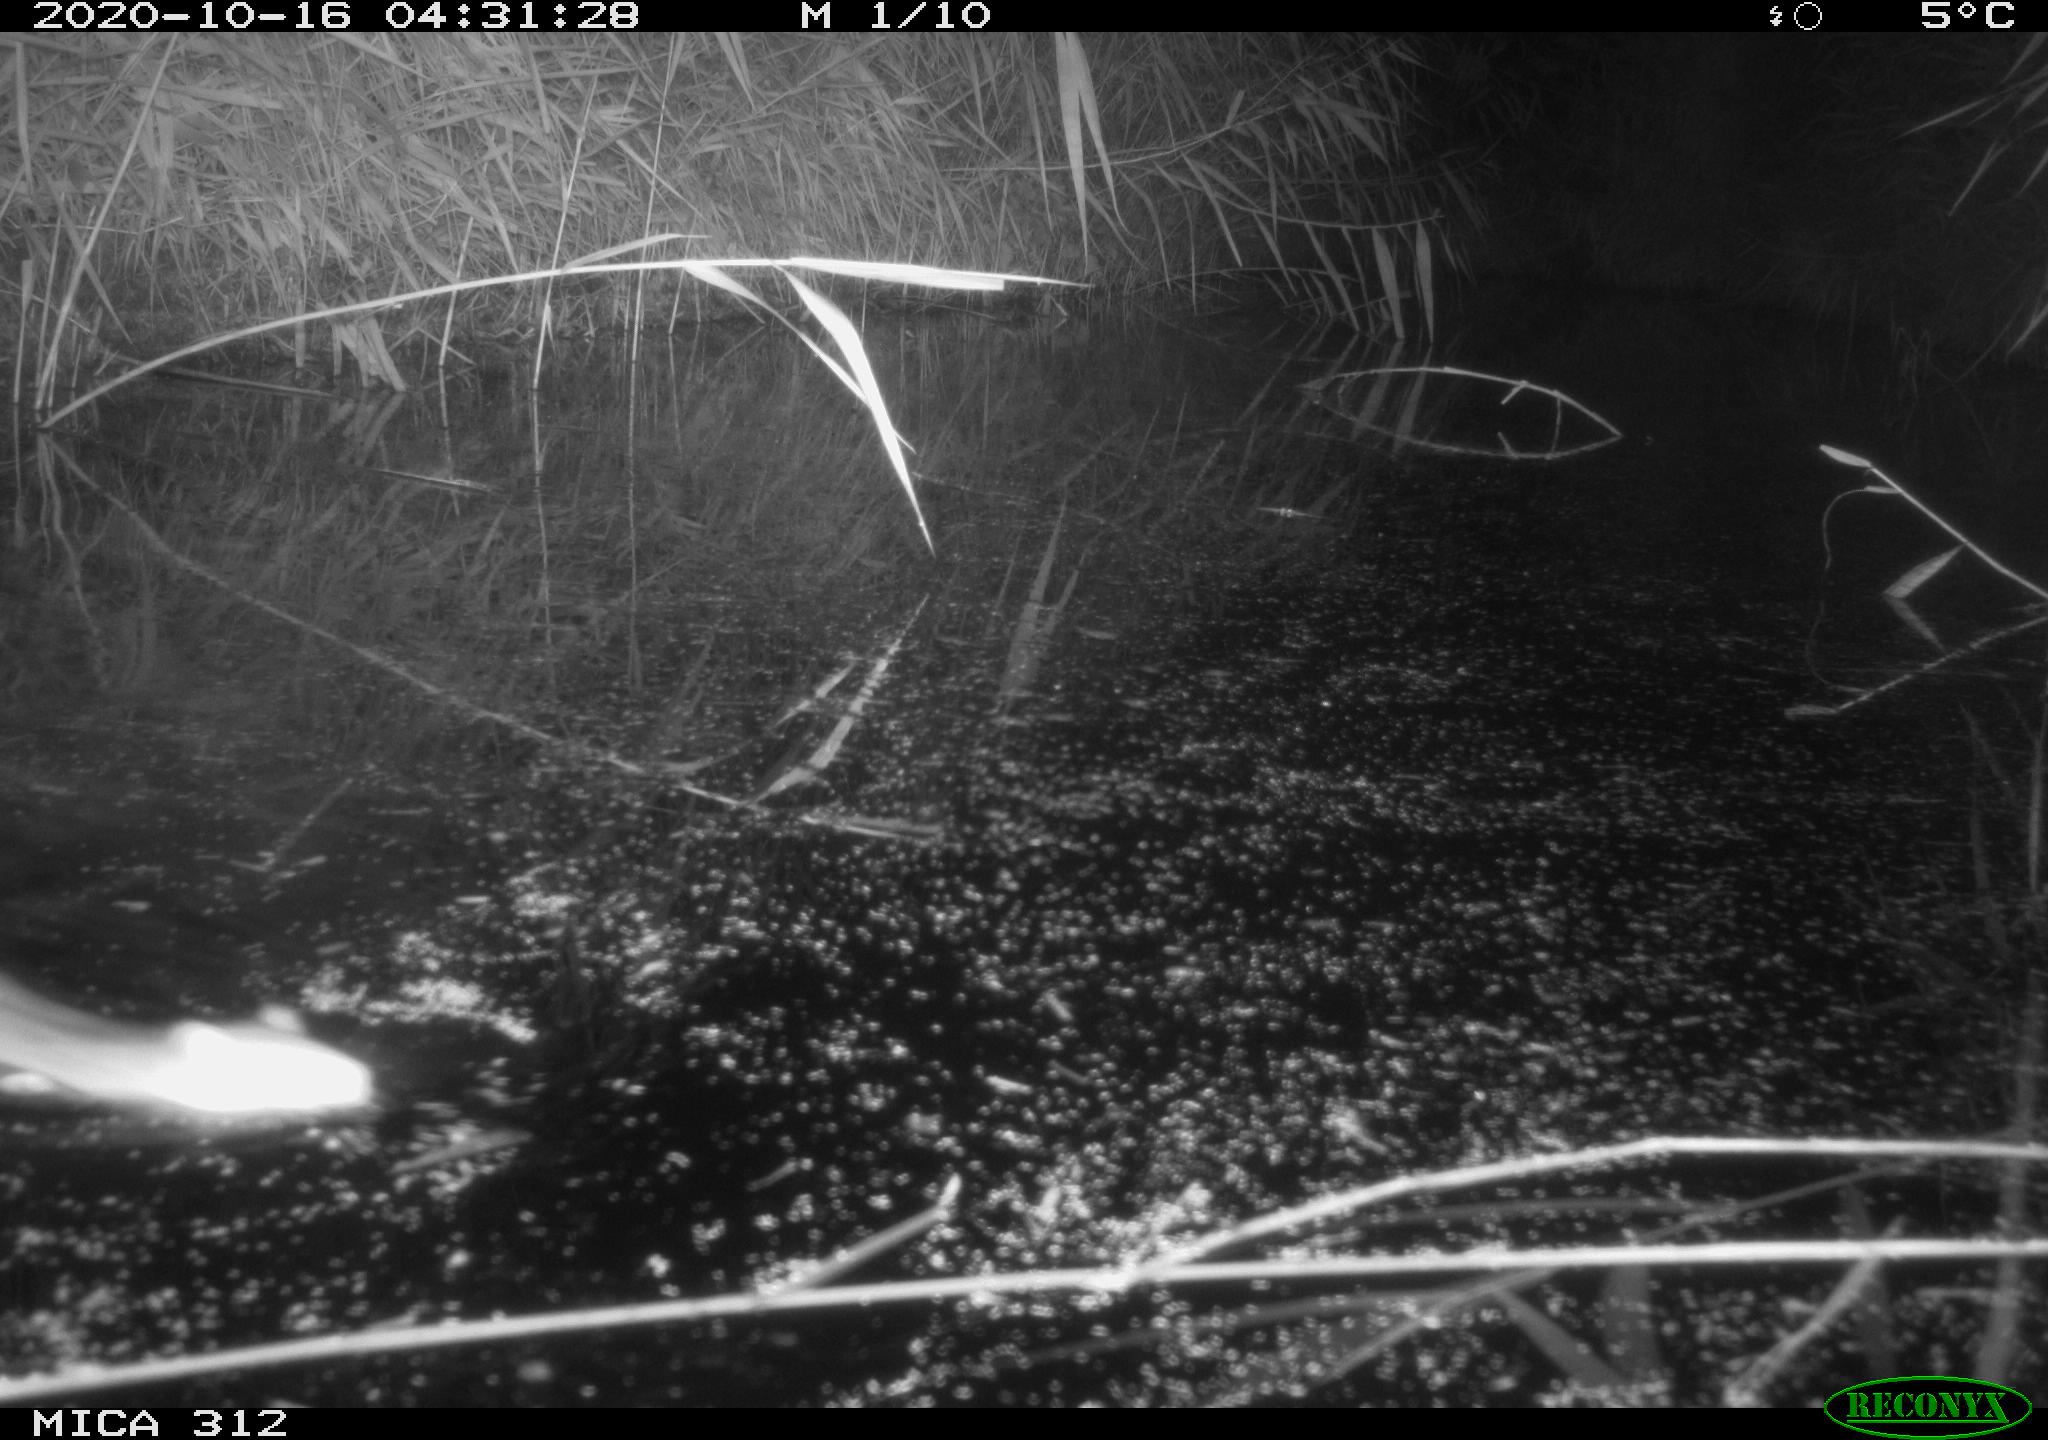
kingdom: Animalia
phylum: Chordata
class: Mammalia
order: Rodentia
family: Muridae
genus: Rattus
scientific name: Rattus norvegicus
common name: Brown rat
